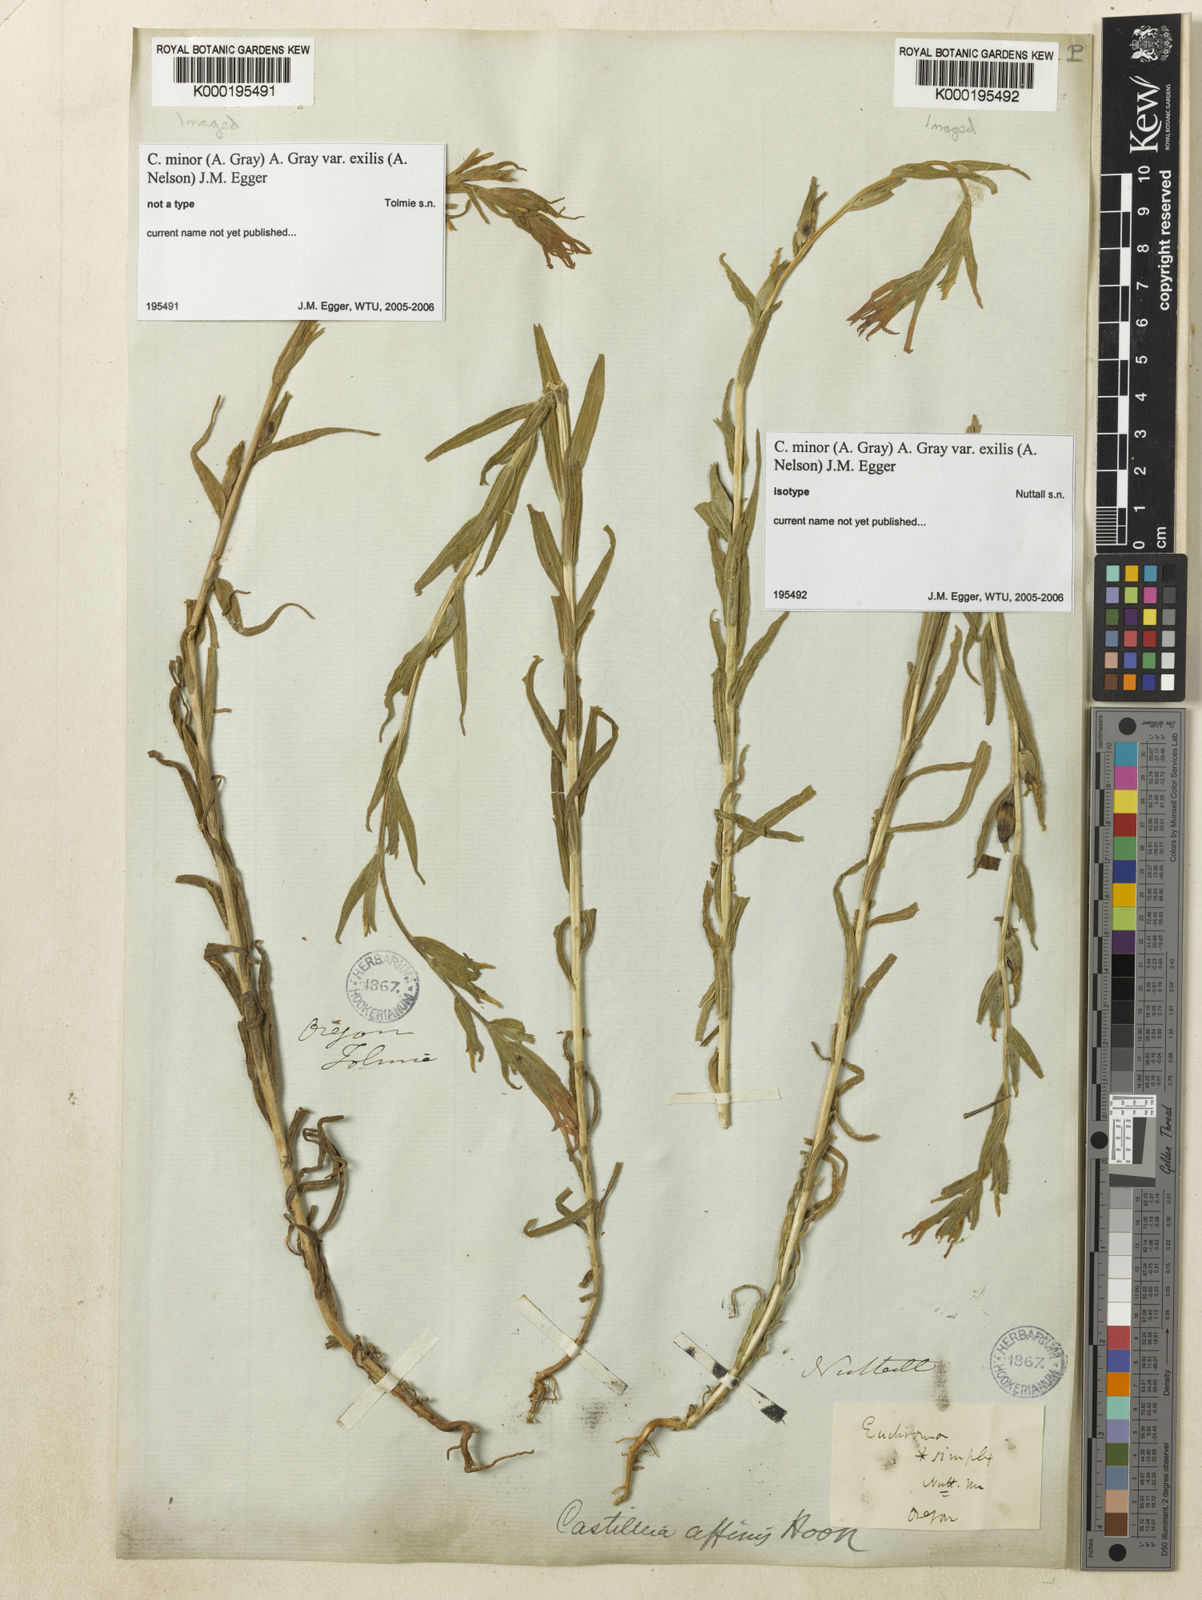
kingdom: Plantae
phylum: Tracheophyta
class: Magnoliopsida
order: Lamiales
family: Orobanchaceae
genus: Castilleja
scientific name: Castilleja minor
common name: Seep paintbrush
